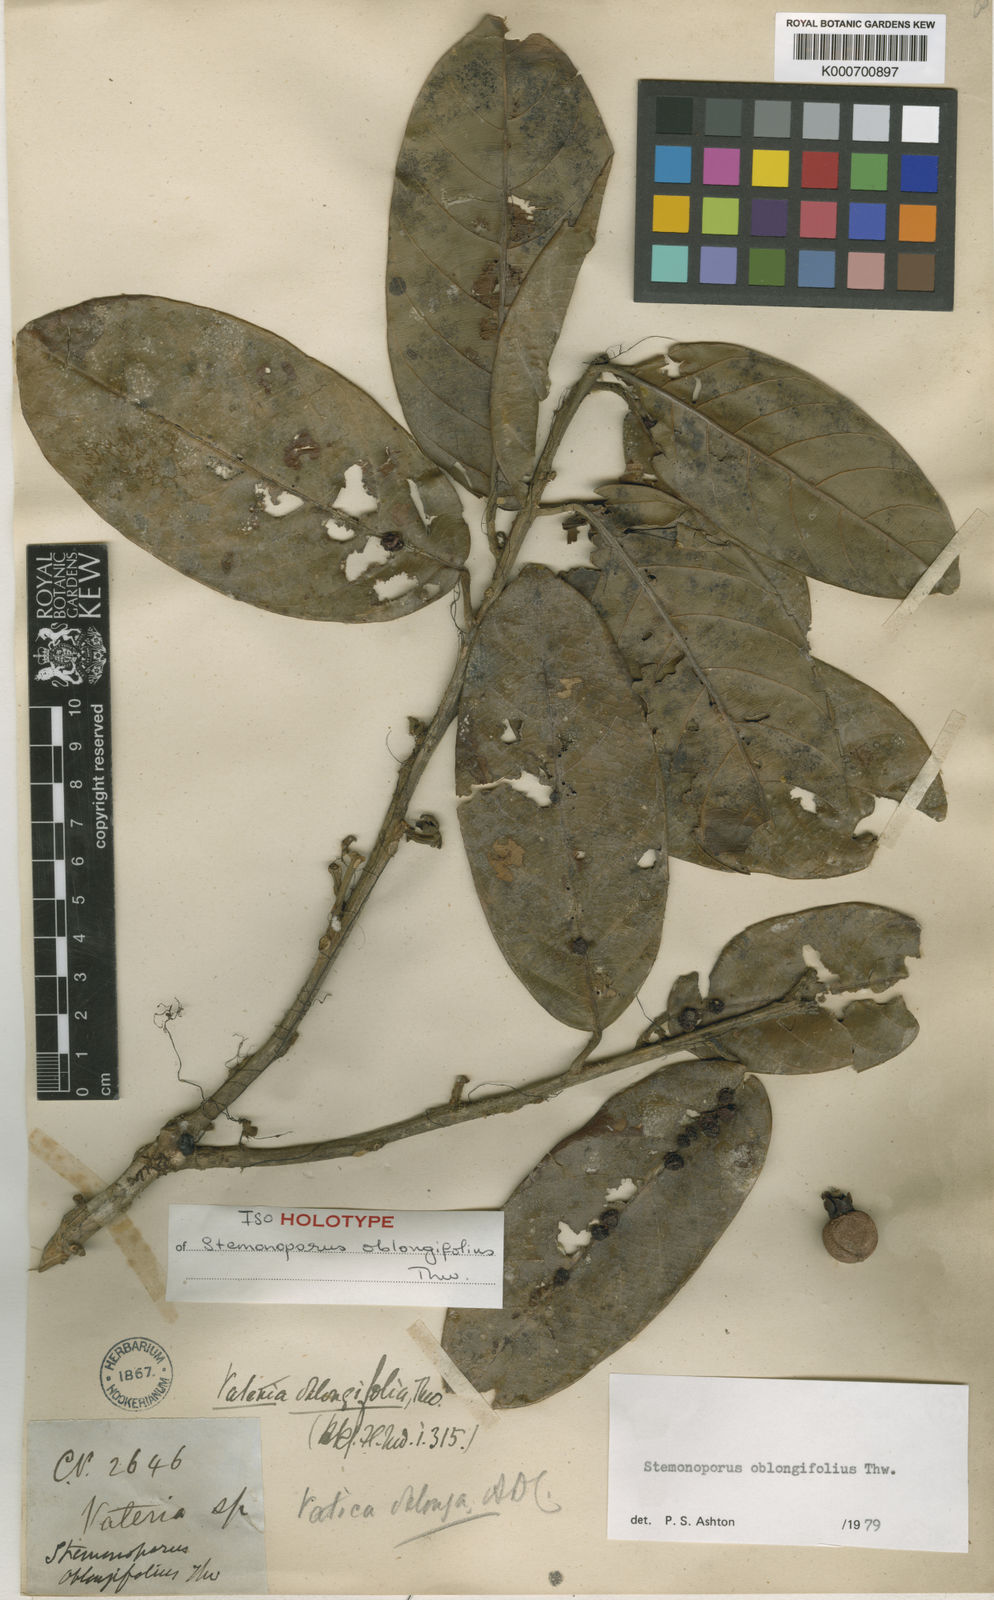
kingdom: Plantae
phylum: Tracheophyta
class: Magnoliopsida
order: Malvales
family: Dipterocarpaceae
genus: Stemonoporus
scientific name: Stemonoporus oblongifolius
